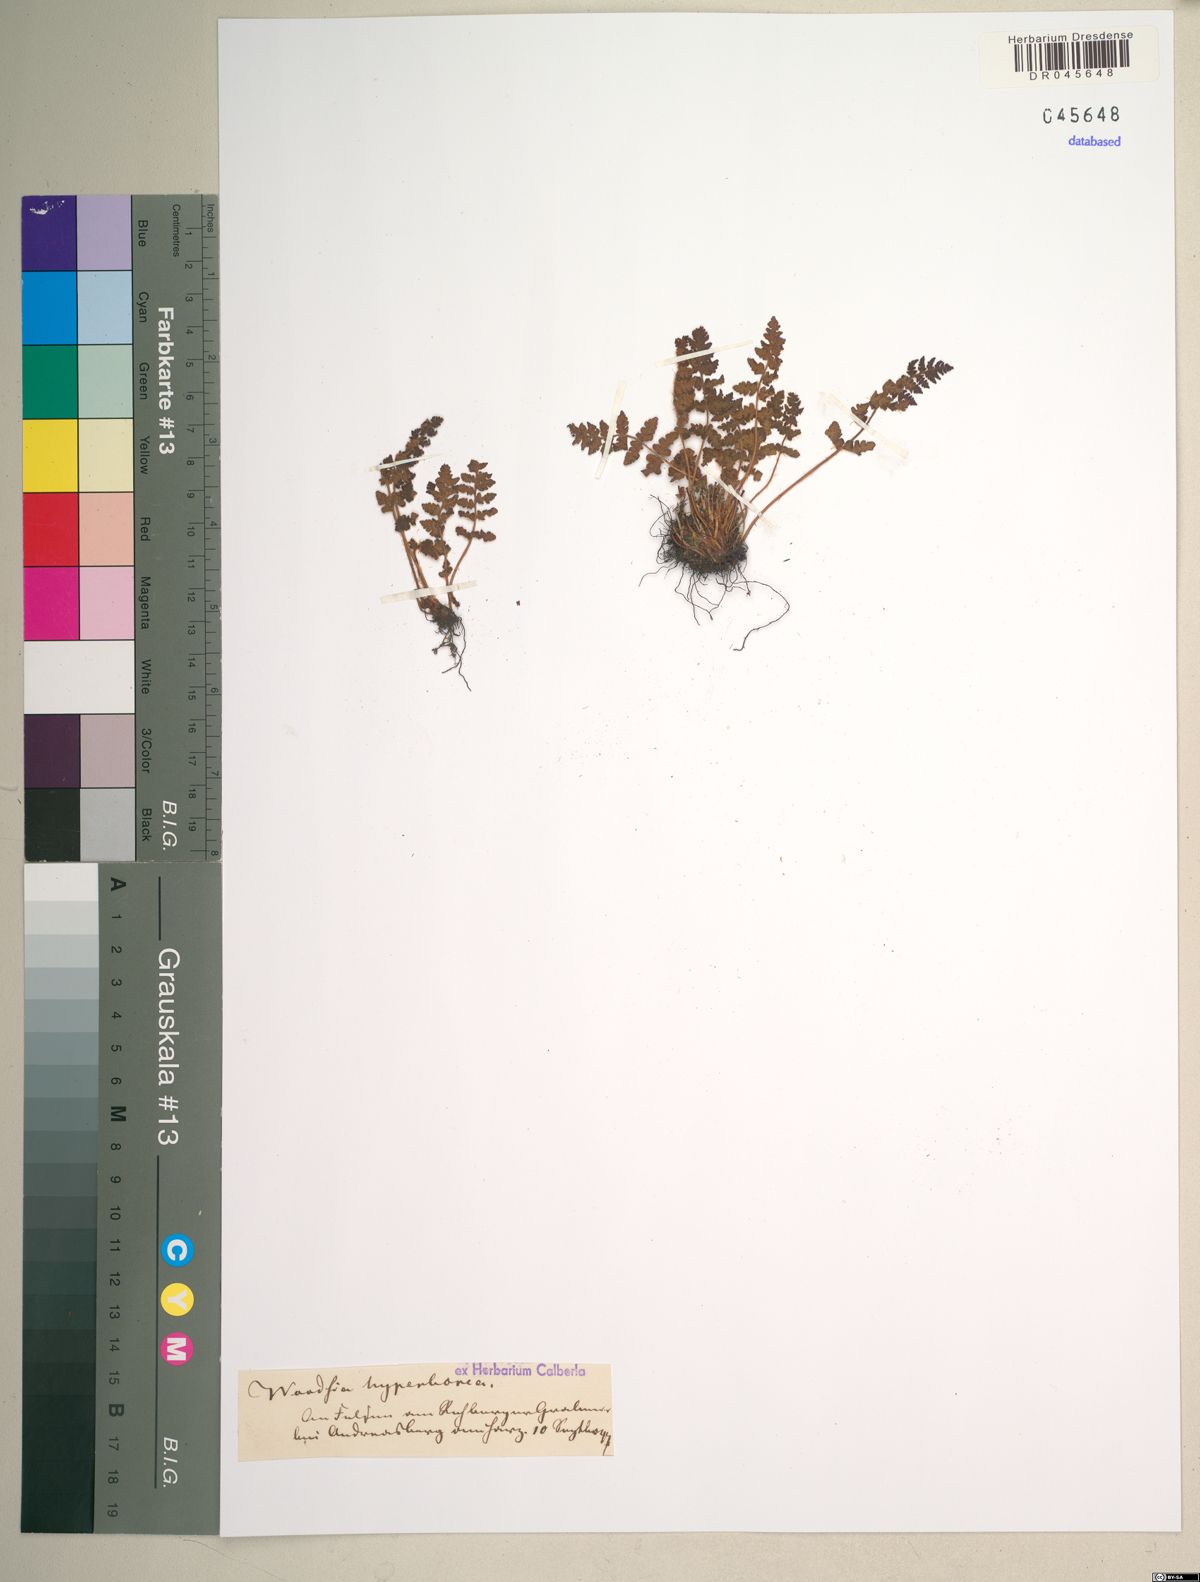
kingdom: Plantae
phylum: Tracheophyta
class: Polypodiopsida
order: Polypodiales
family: Woodsiaceae
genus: Woodsia
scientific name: Woodsia ilvensis
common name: Fragrant woodsia
